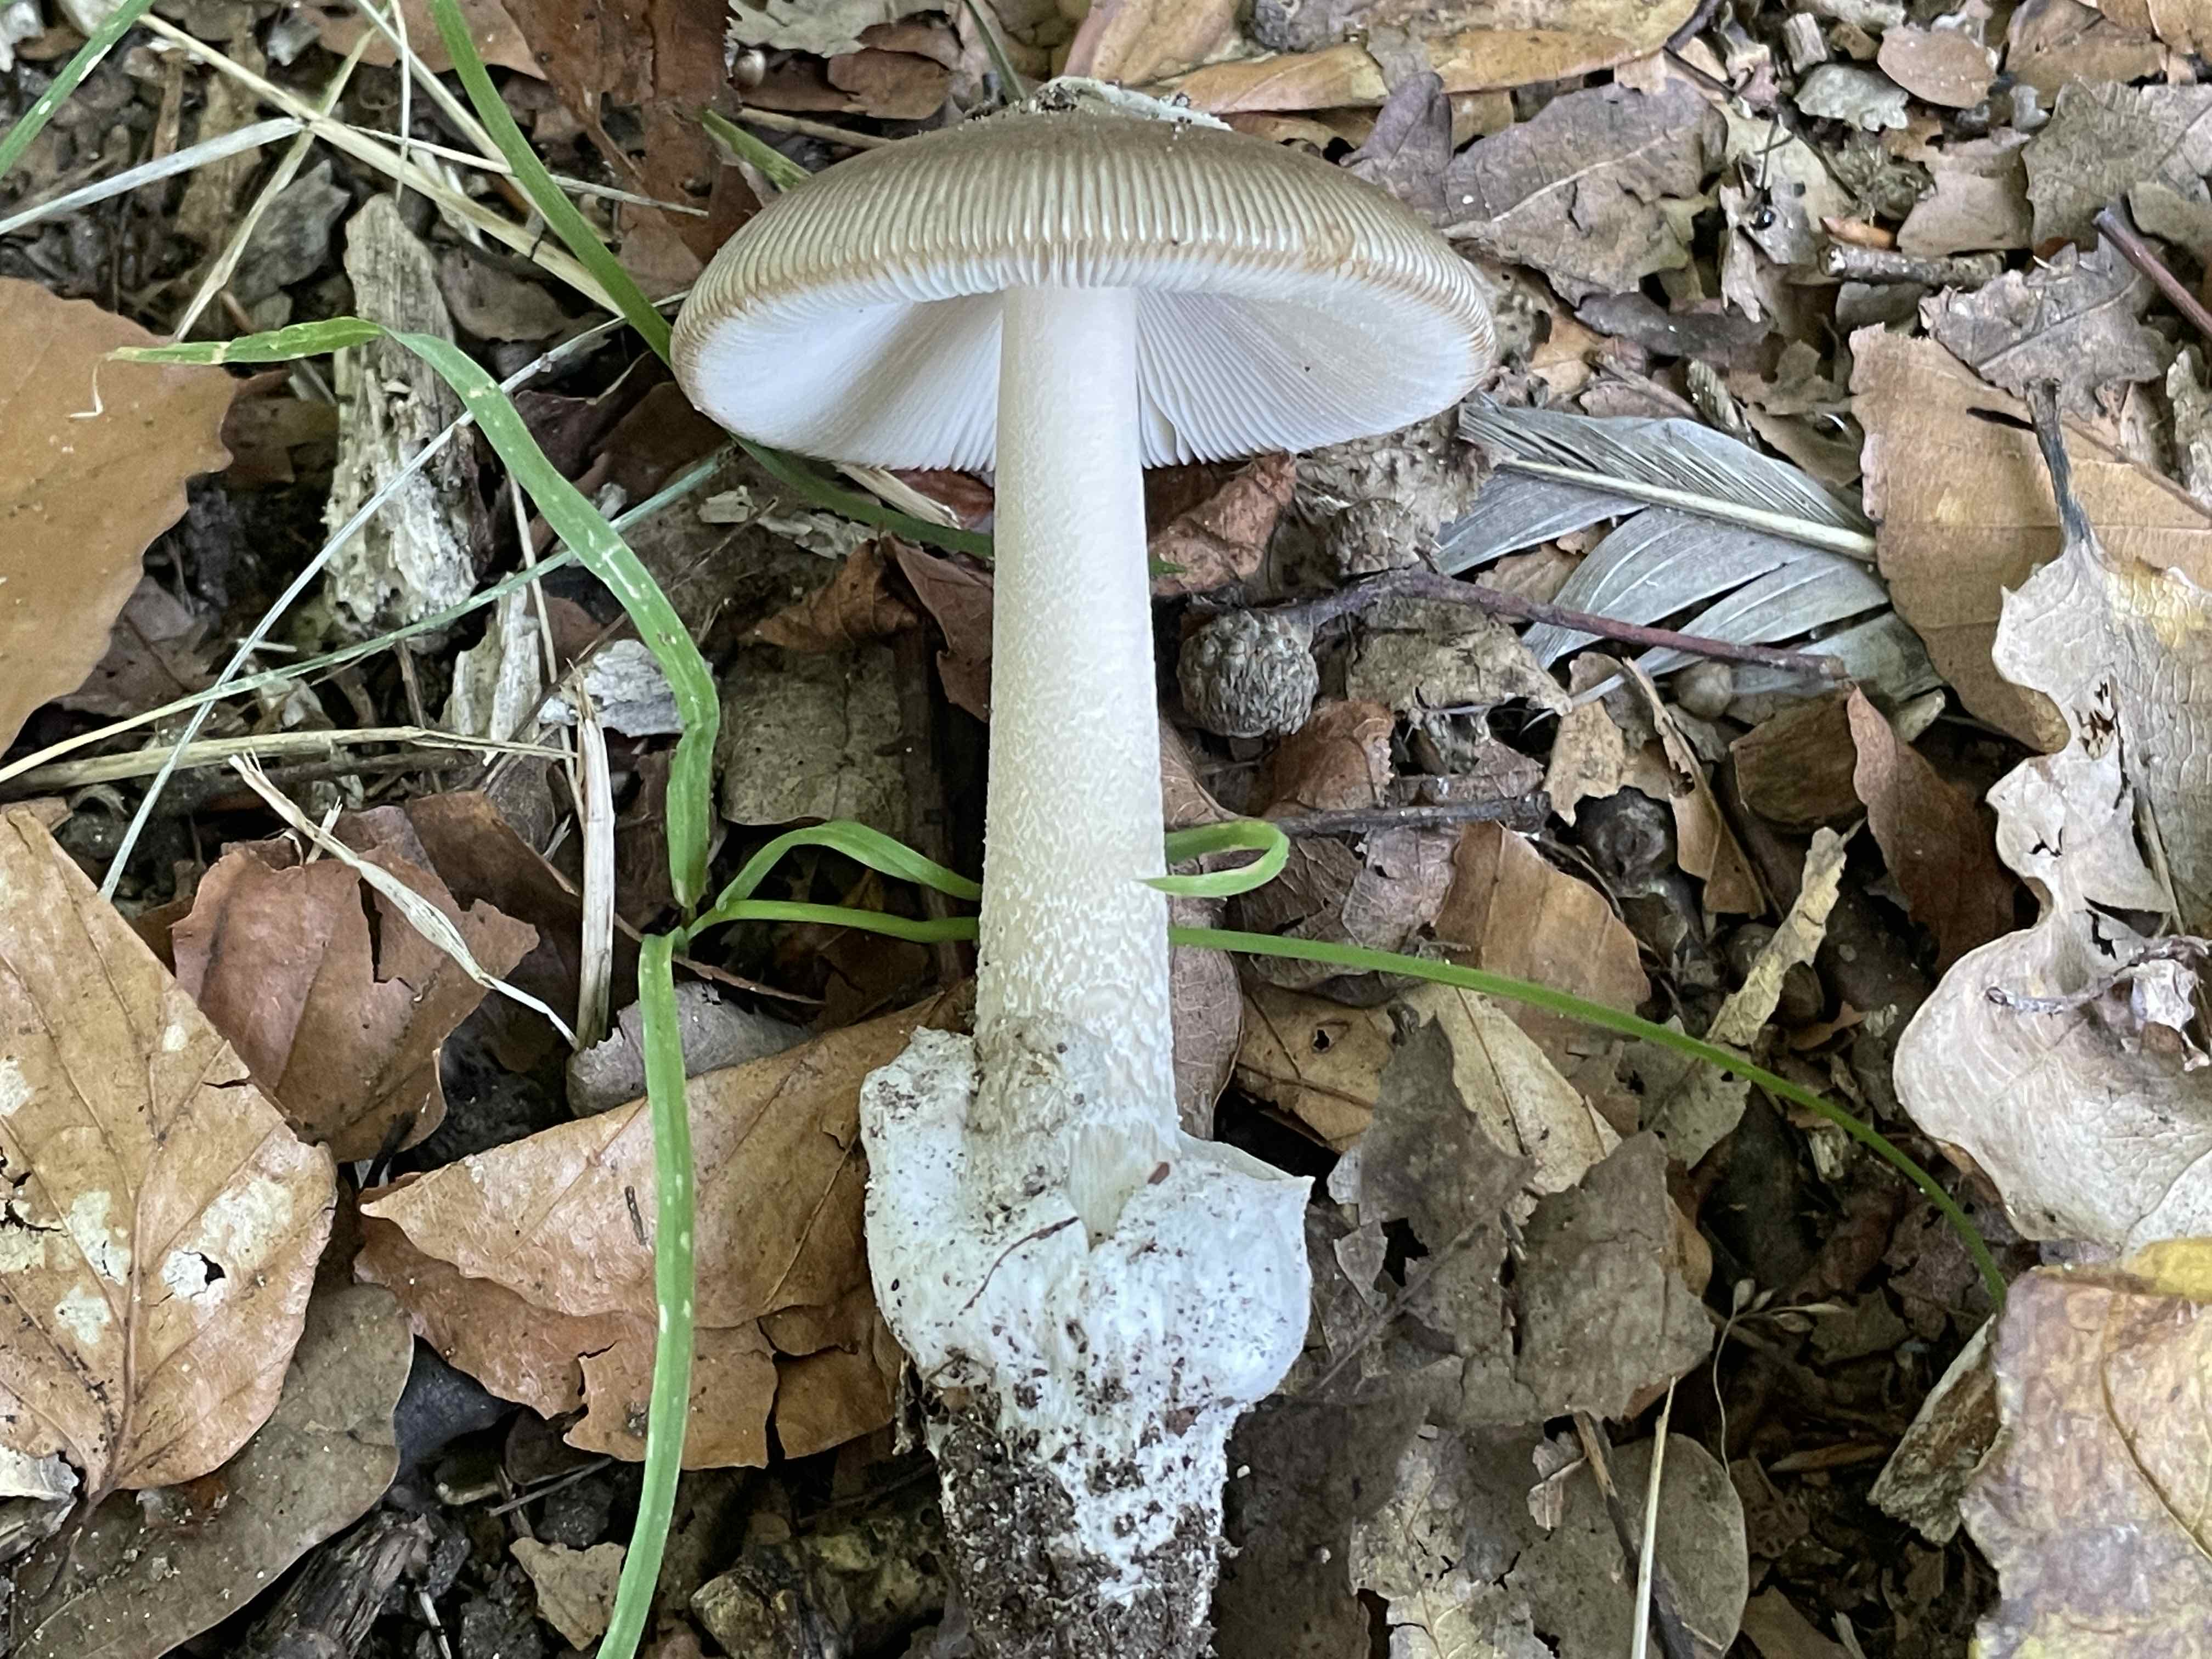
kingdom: Fungi
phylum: Basidiomycota
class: Agaricomycetes
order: Agaricales
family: Amanitaceae
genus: Amanita
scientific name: Amanita vaginata
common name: grå kam-fluesvamp
